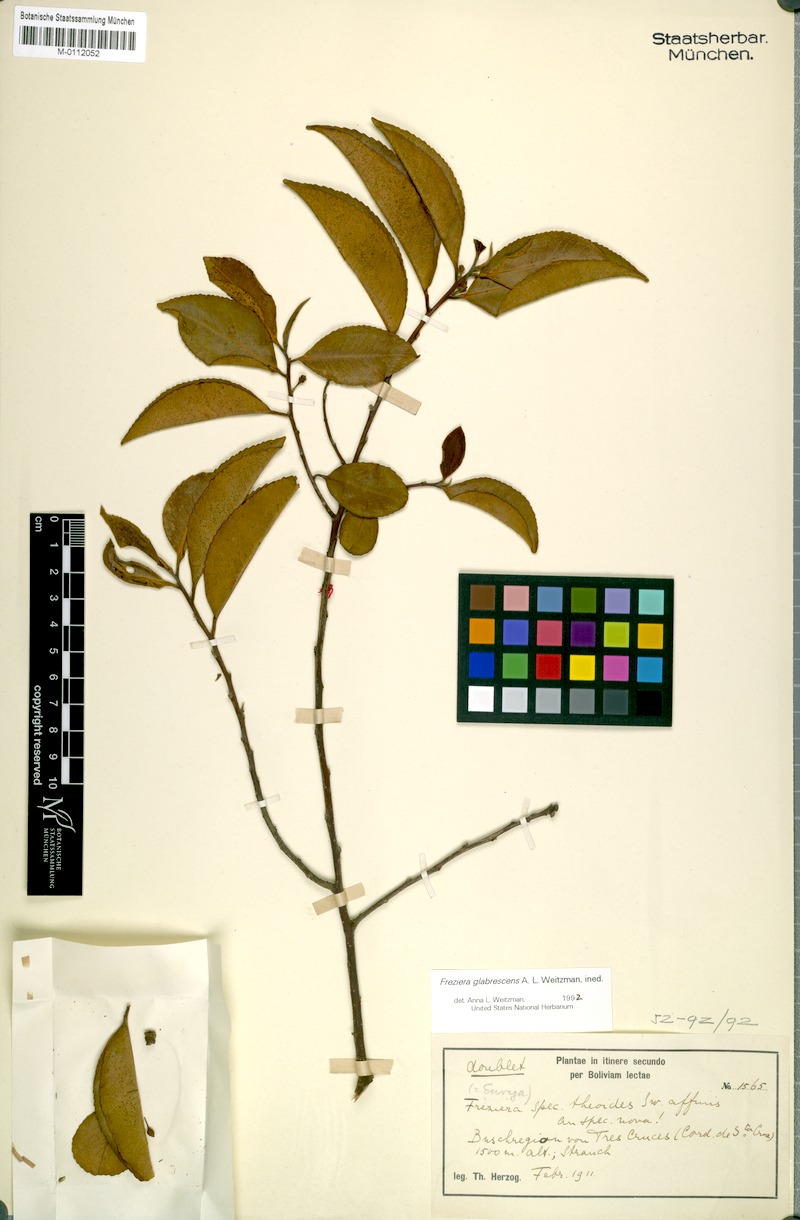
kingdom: Plantae
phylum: Tracheophyta
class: Magnoliopsida
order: Ericales
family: Pentaphylacaceae
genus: Freziera
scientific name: Freziera glabrescens
